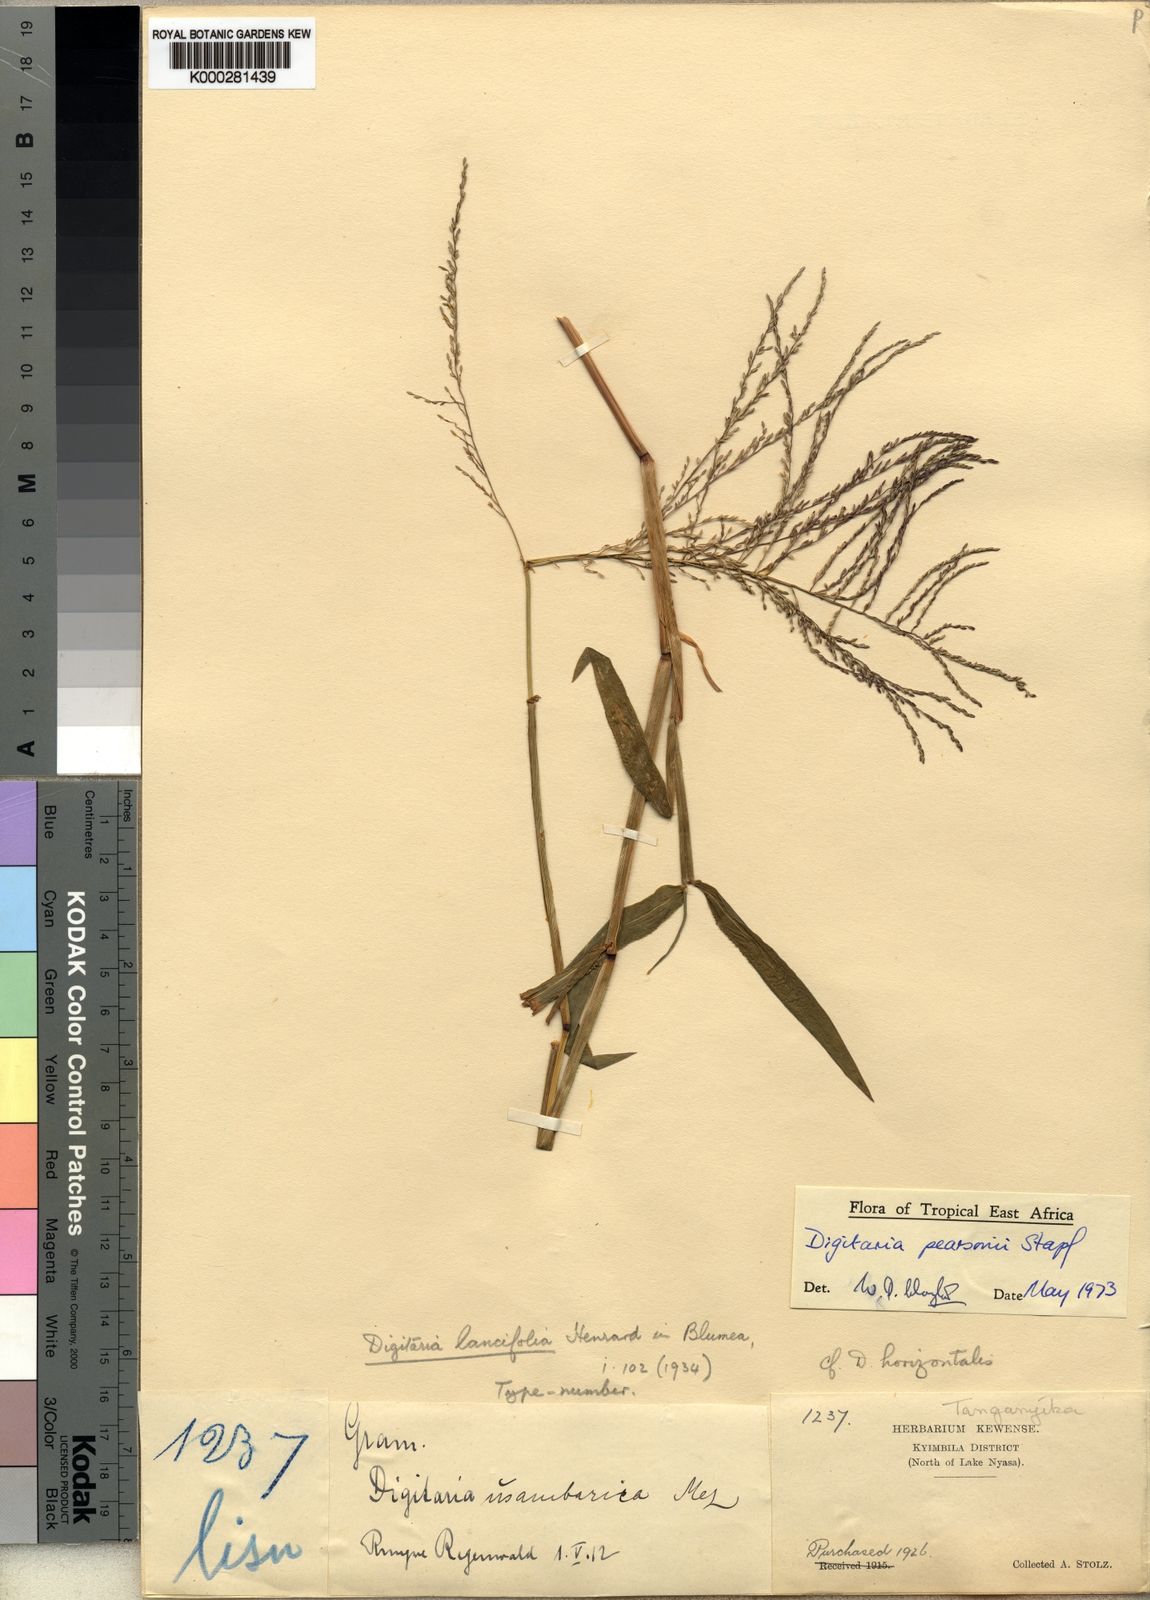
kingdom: Plantae
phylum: Tracheophyta
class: Liliopsida
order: Poales
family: Poaceae
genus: Digitaria
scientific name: Digitaria pearsonii
